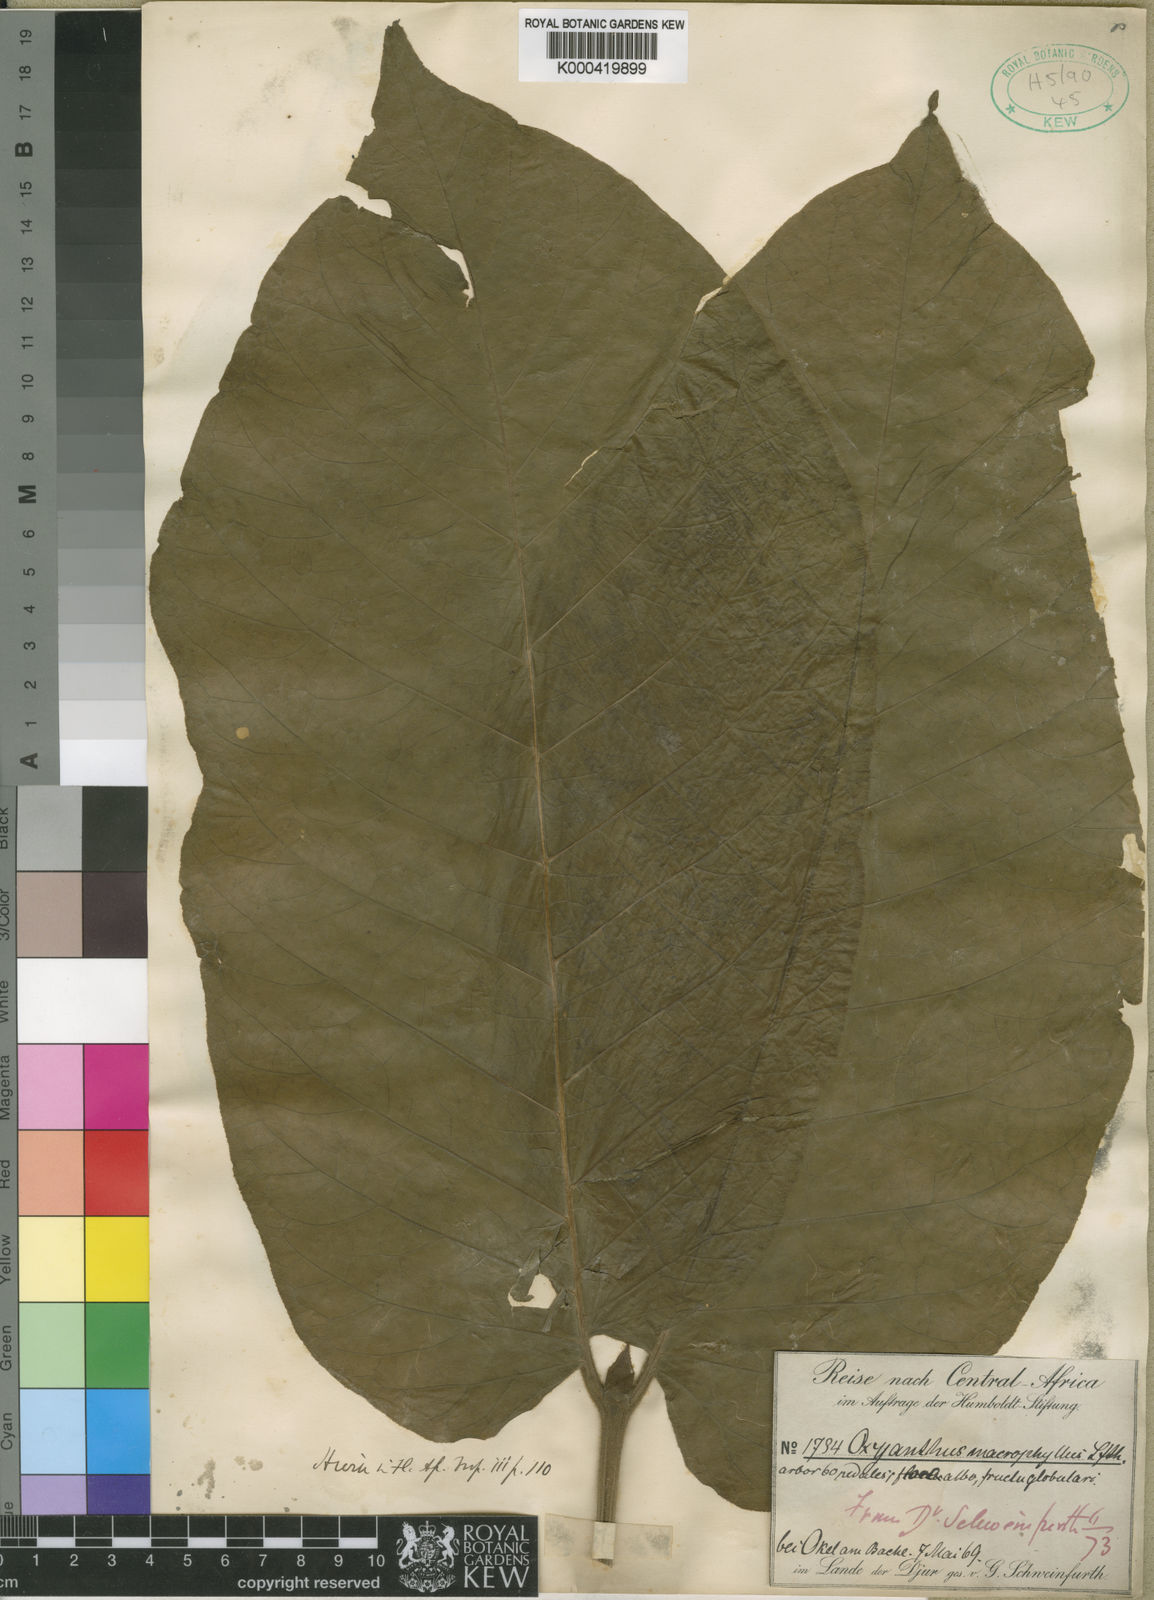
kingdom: Plantae
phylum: Tracheophyta
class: Magnoliopsida
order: Gentianales
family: Rubiaceae
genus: Oxyanthus
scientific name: Oxyanthus unilocularis
